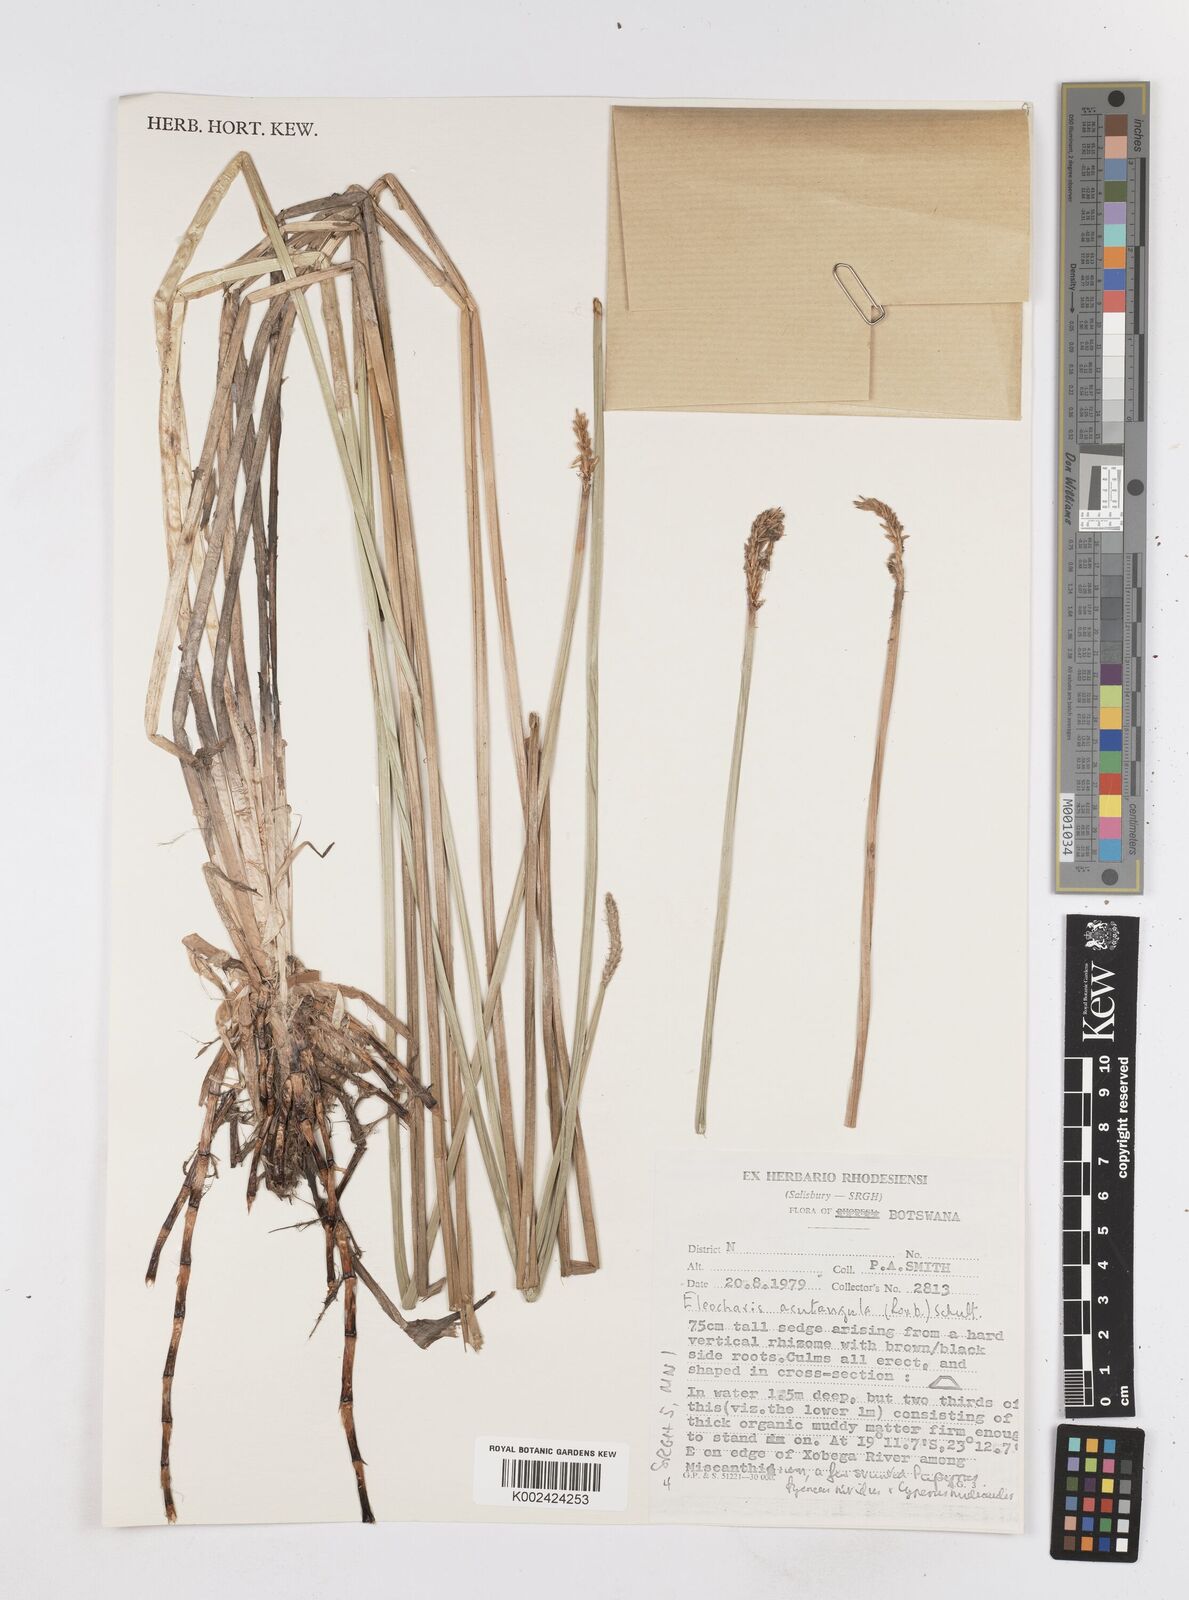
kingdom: Plantae
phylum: Tracheophyta
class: Liliopsida
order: Poales
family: Cyperaceae
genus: Eleocharis
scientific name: Eleocharis acutangula
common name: Acute spikerush
